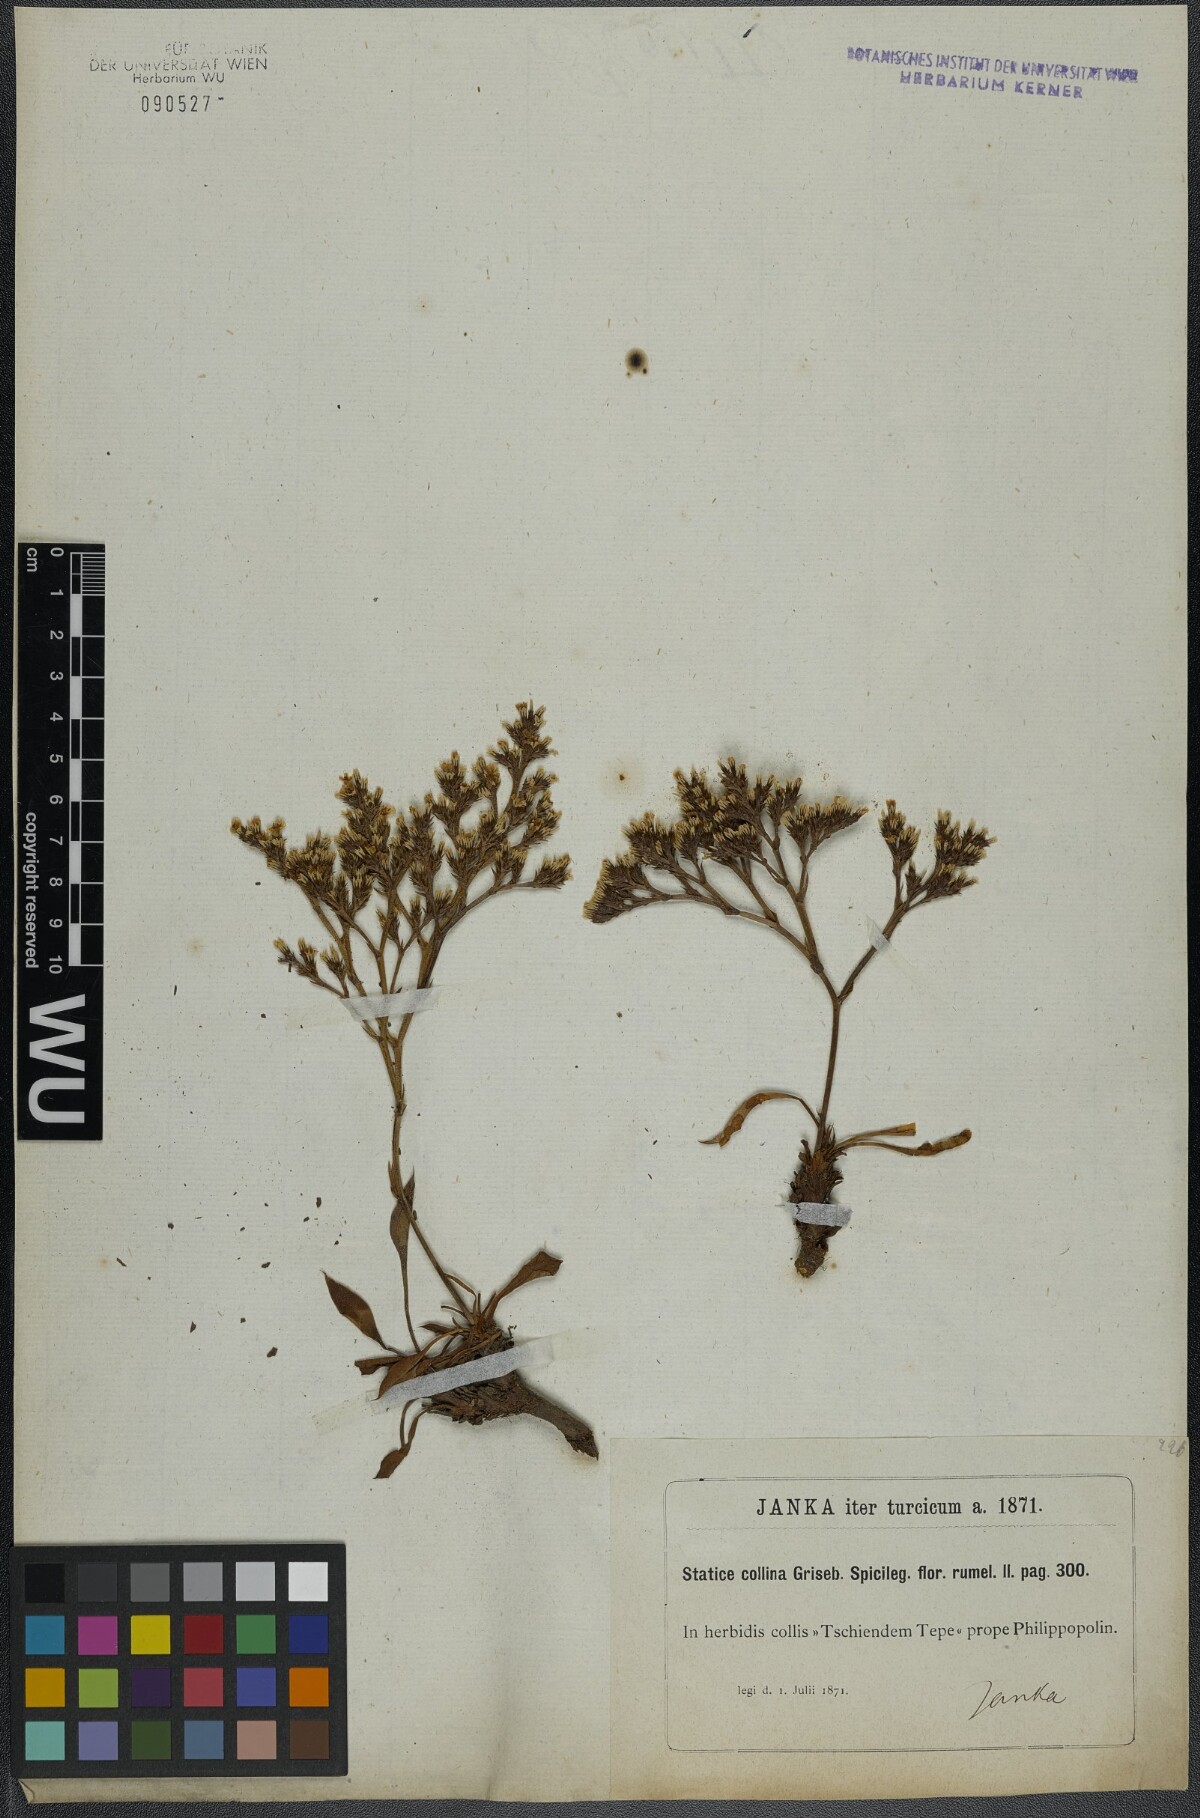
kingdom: Plantae
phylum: Tracheophyta
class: Magnoliopsida
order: Caryophyllales
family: Plumbaginaceae
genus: Goniolimon
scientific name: Goniolimon incanum
